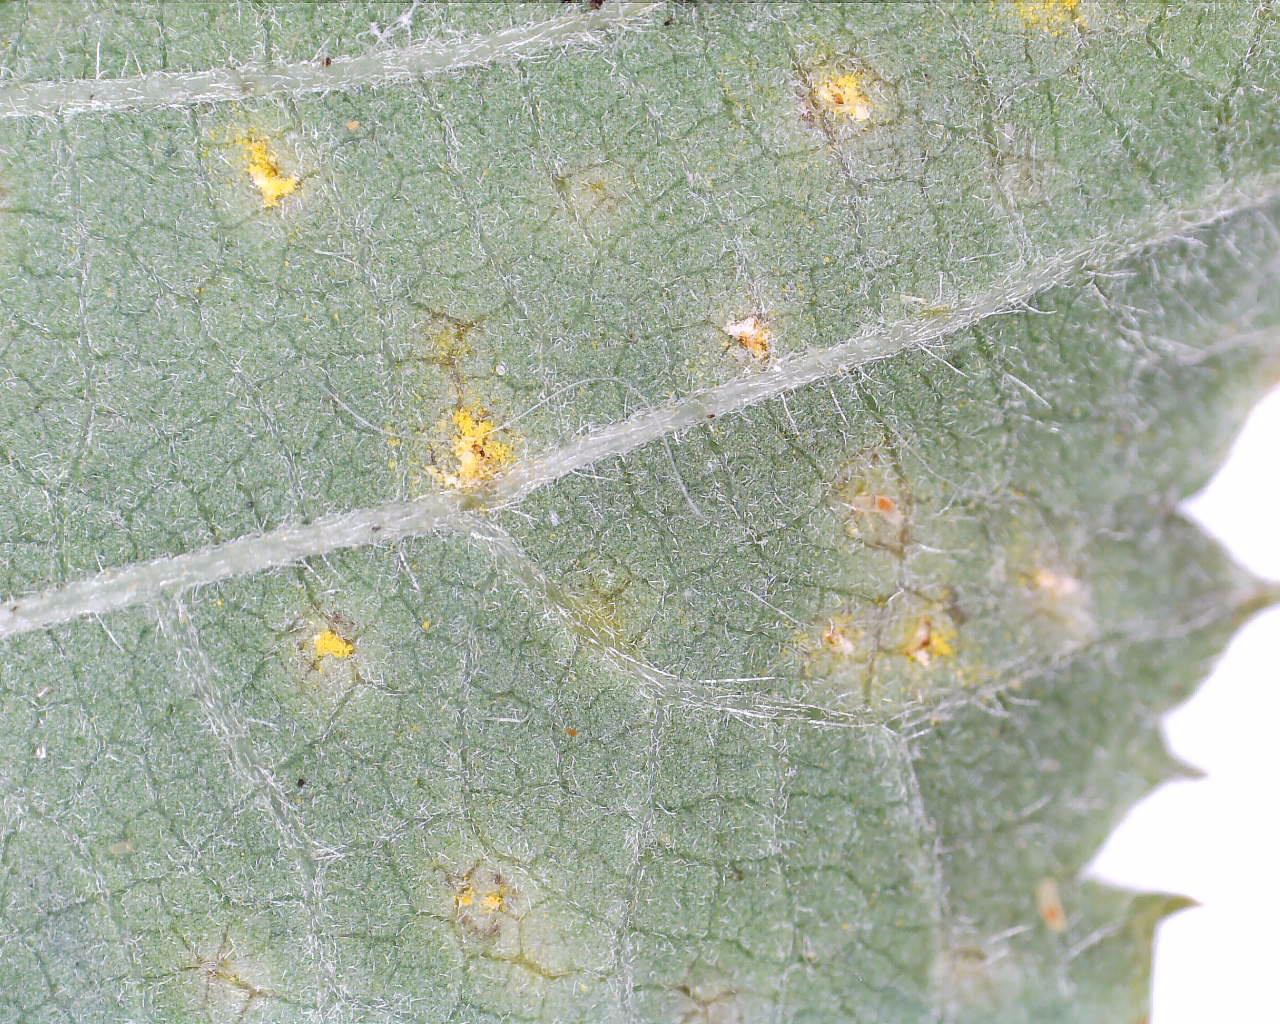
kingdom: Fungi
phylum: Basidiomycota
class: Pucciniomycetes
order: Pucciniales
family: Phragmidiaceae
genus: Kuehneola
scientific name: Kuehneola uredinis
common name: klynger-kædecellerust
